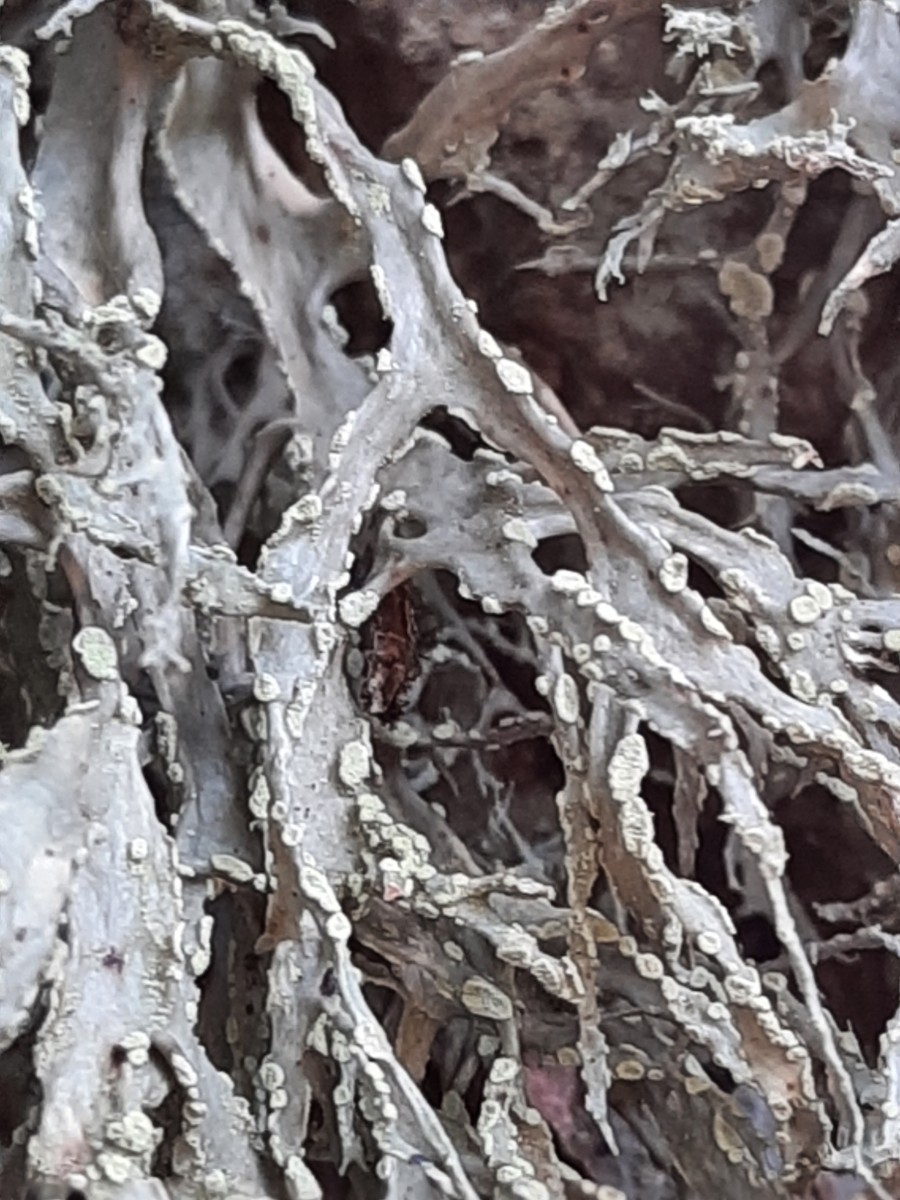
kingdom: Fungi
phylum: Ascomycota
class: Lecanoromycetes
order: Lecanorales
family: Ramalinaceae
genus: Ramalina
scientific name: Ramalina farinacea
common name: melet grenlav
